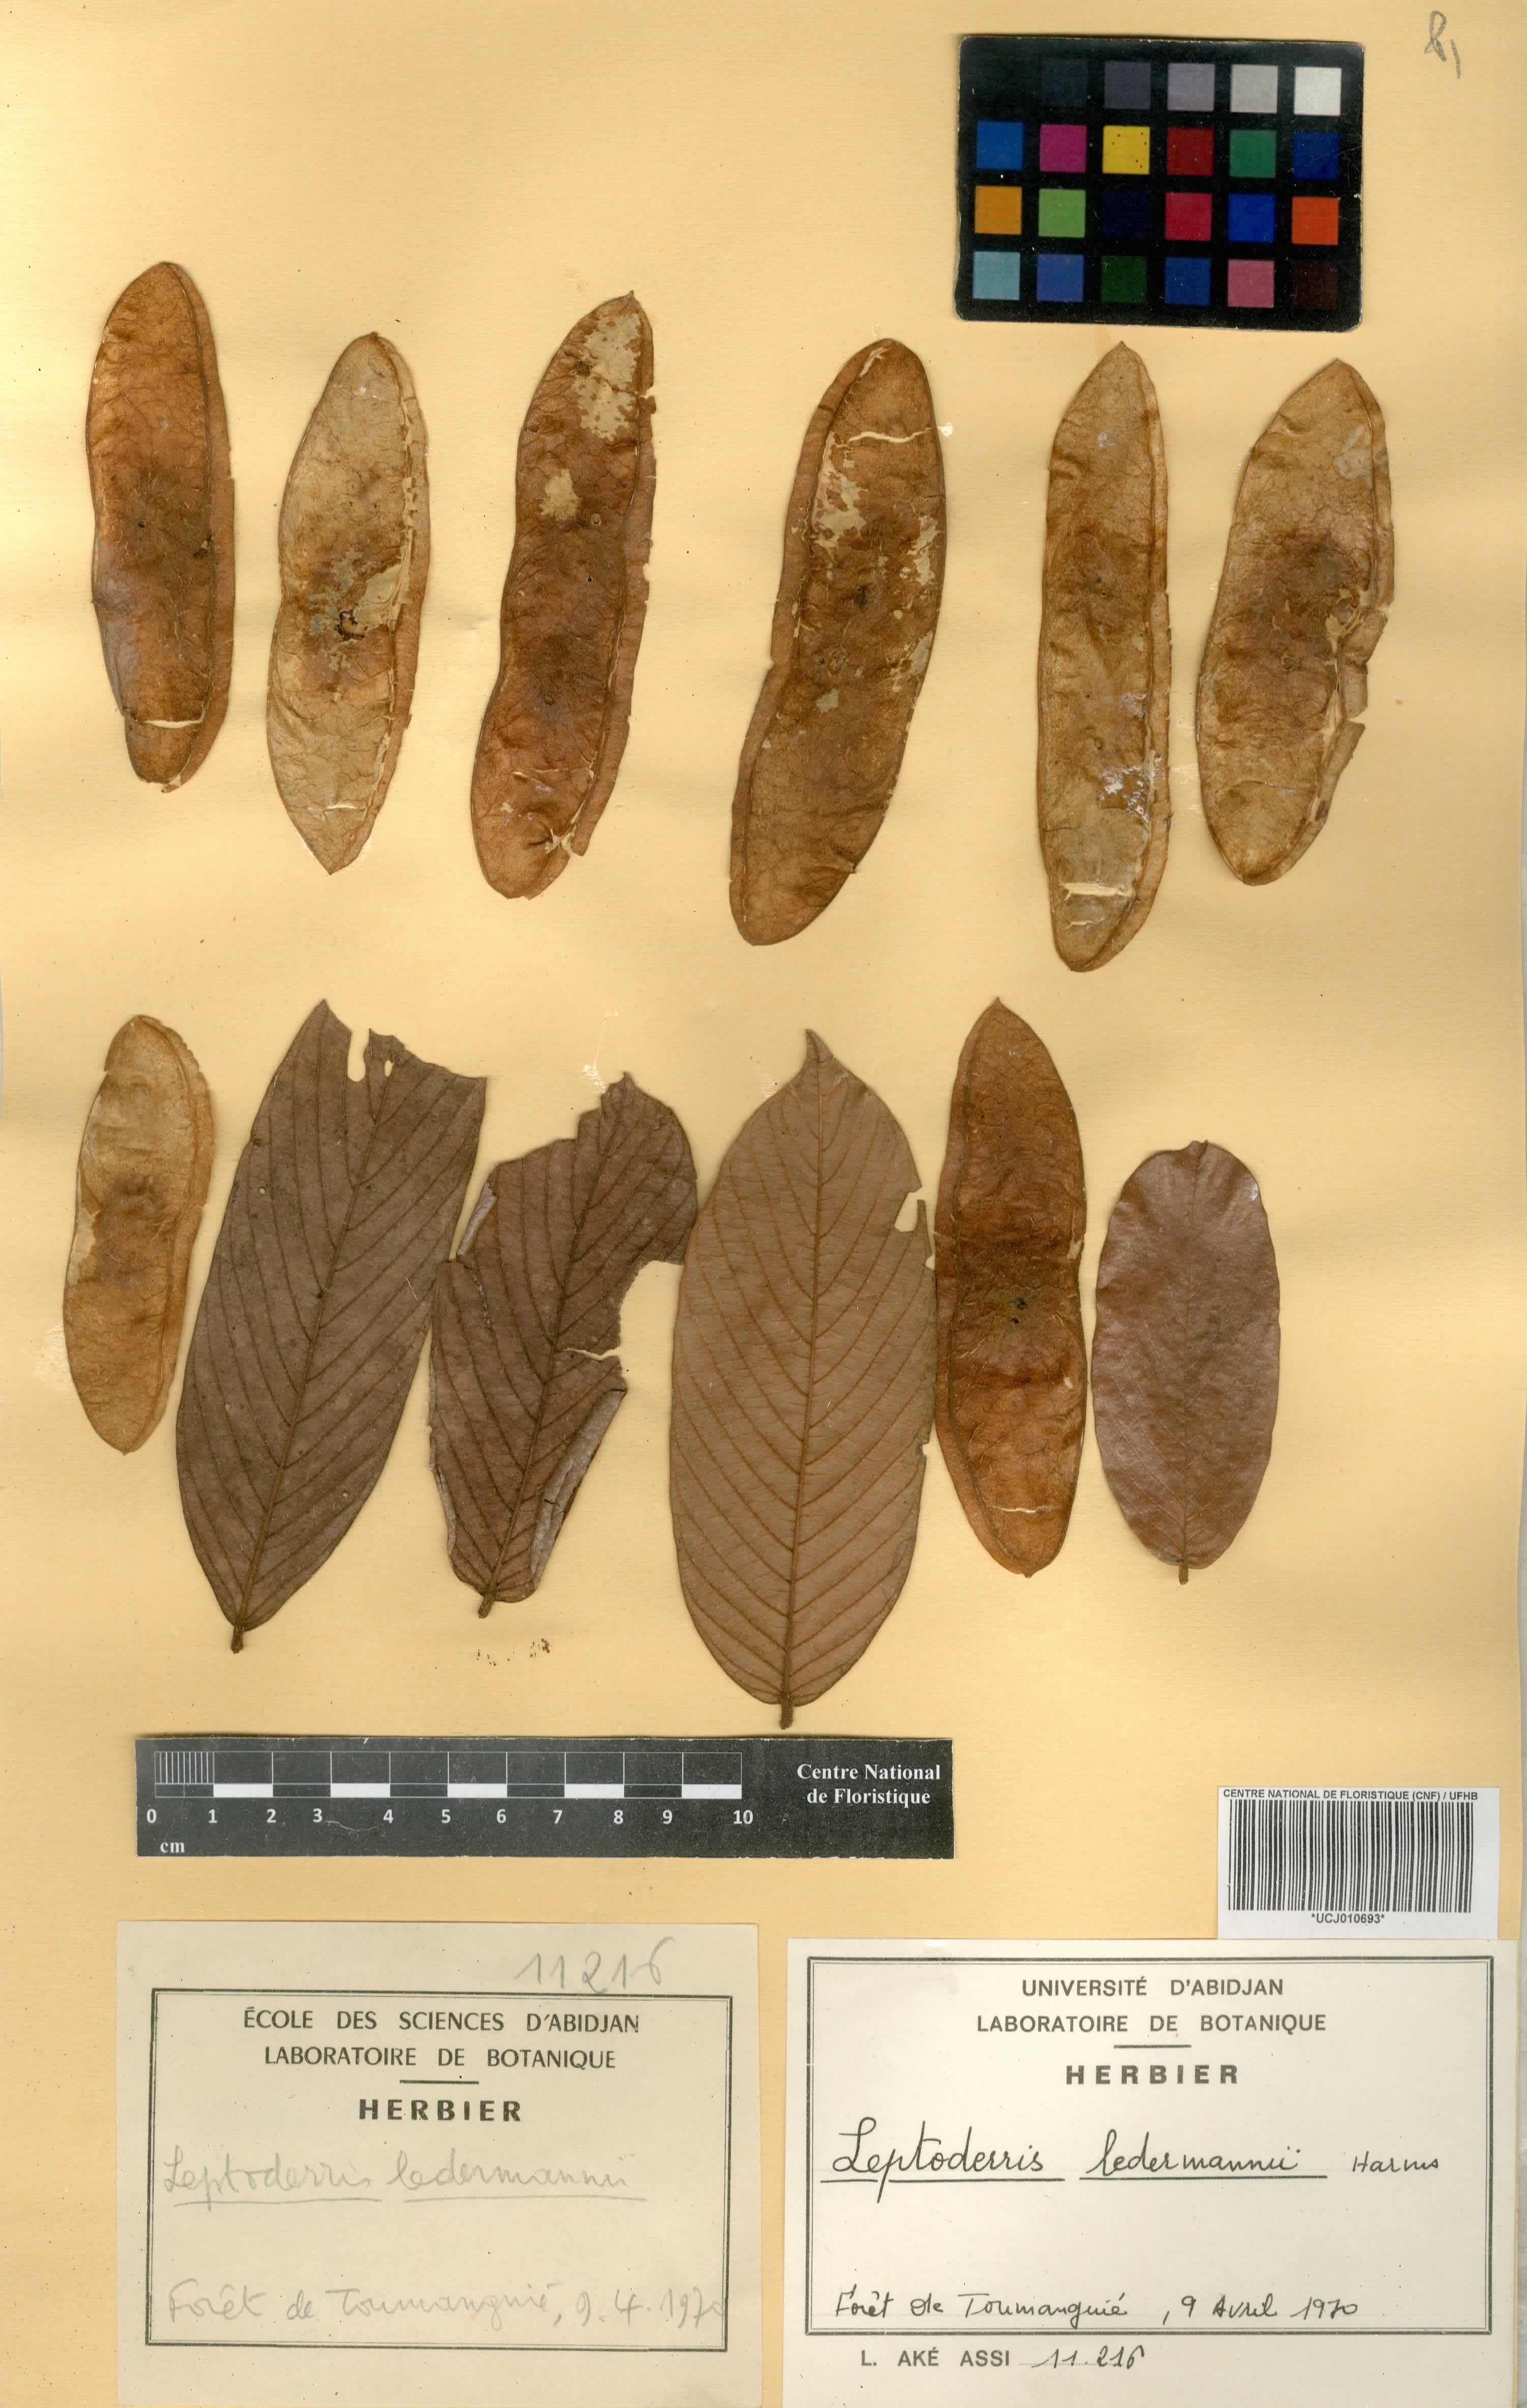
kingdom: Plantae
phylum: Tracheophyta
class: Magnoliopsida
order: Fabales
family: Fabaceae
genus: Leptoderris
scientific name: Leptoderris ledermannii
